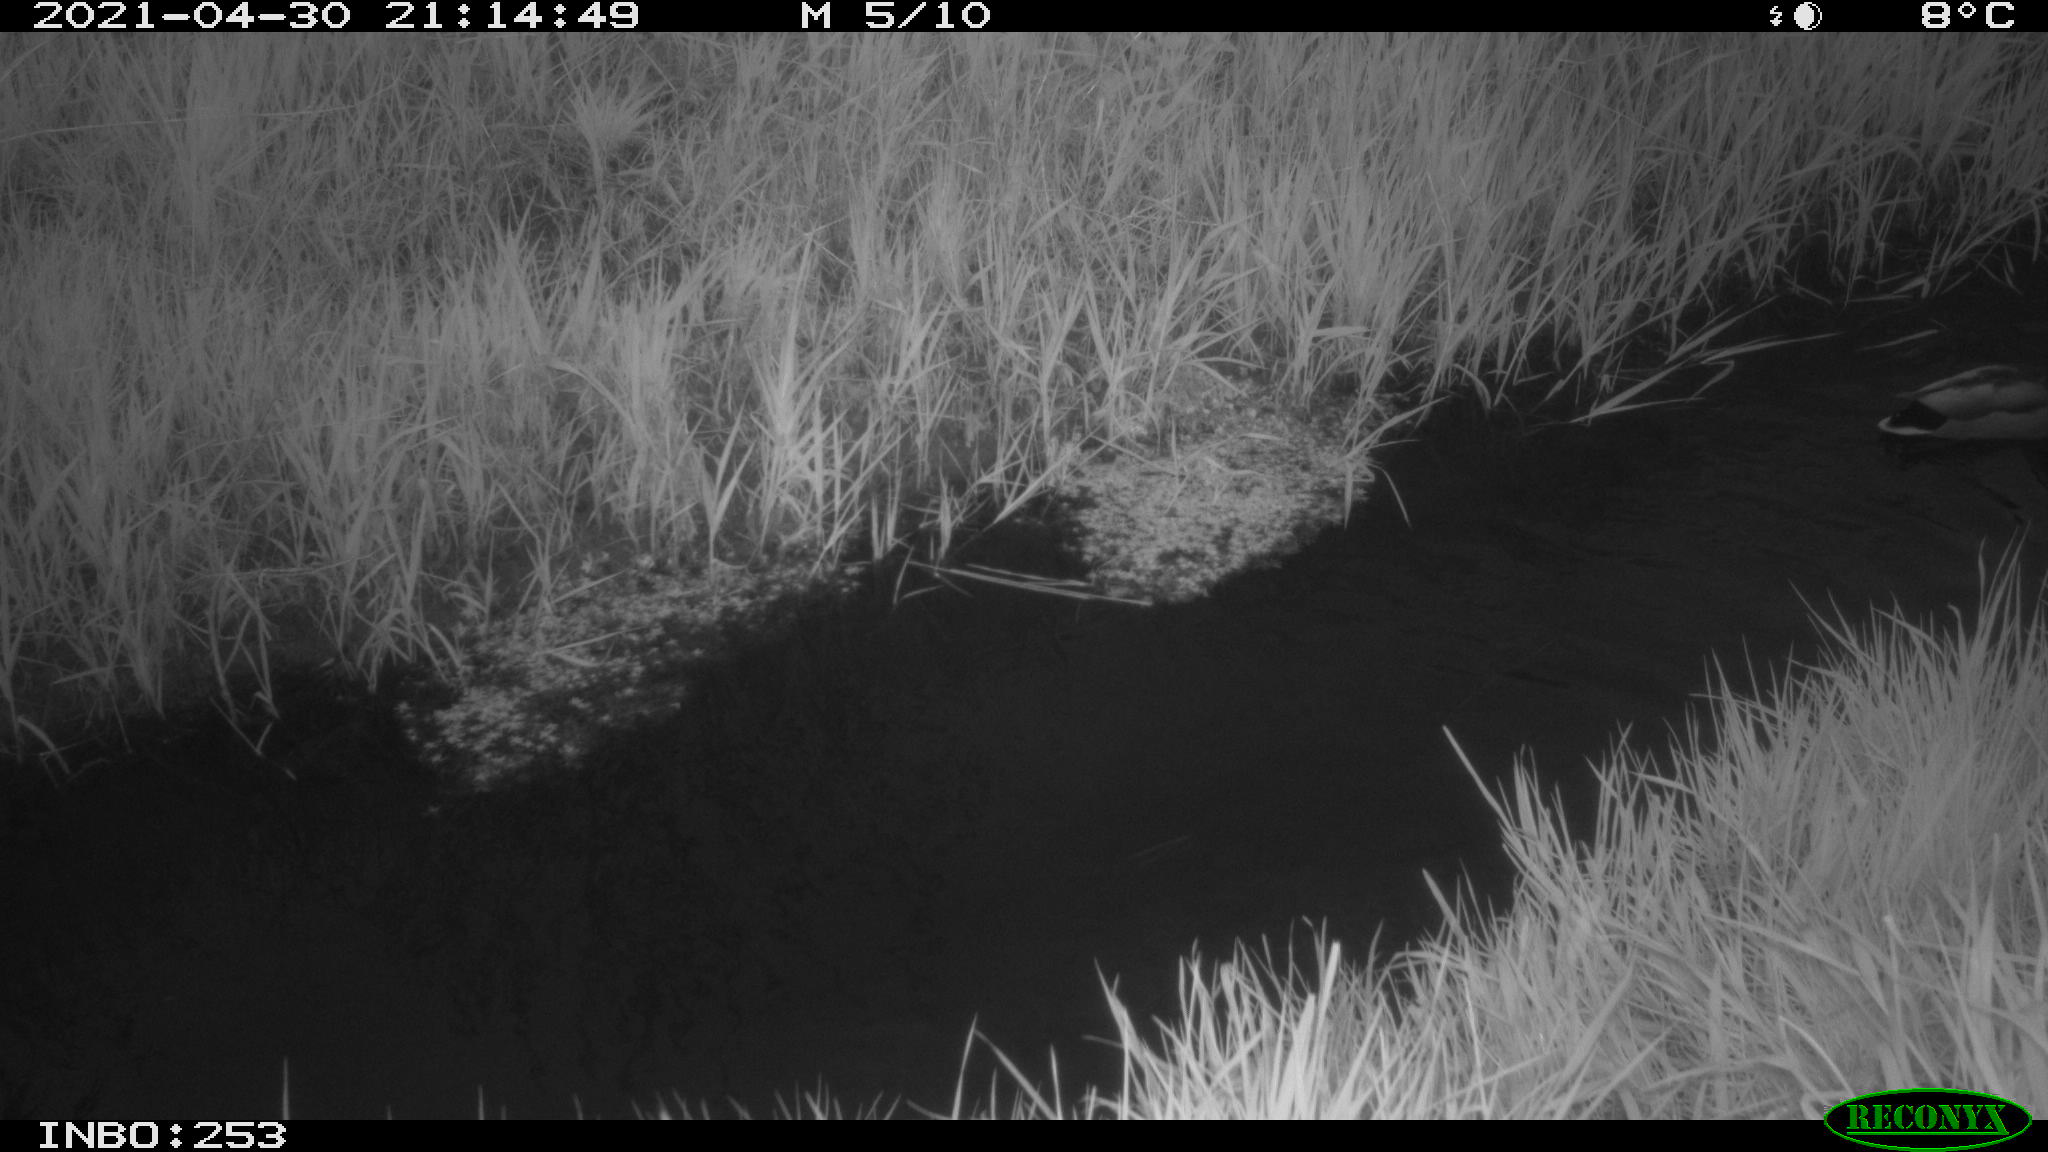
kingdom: Animalia
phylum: Chordata
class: Aves
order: Anseriformes
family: Anatidae
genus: Anas
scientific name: Anas platyrhynchos
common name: Mallard
